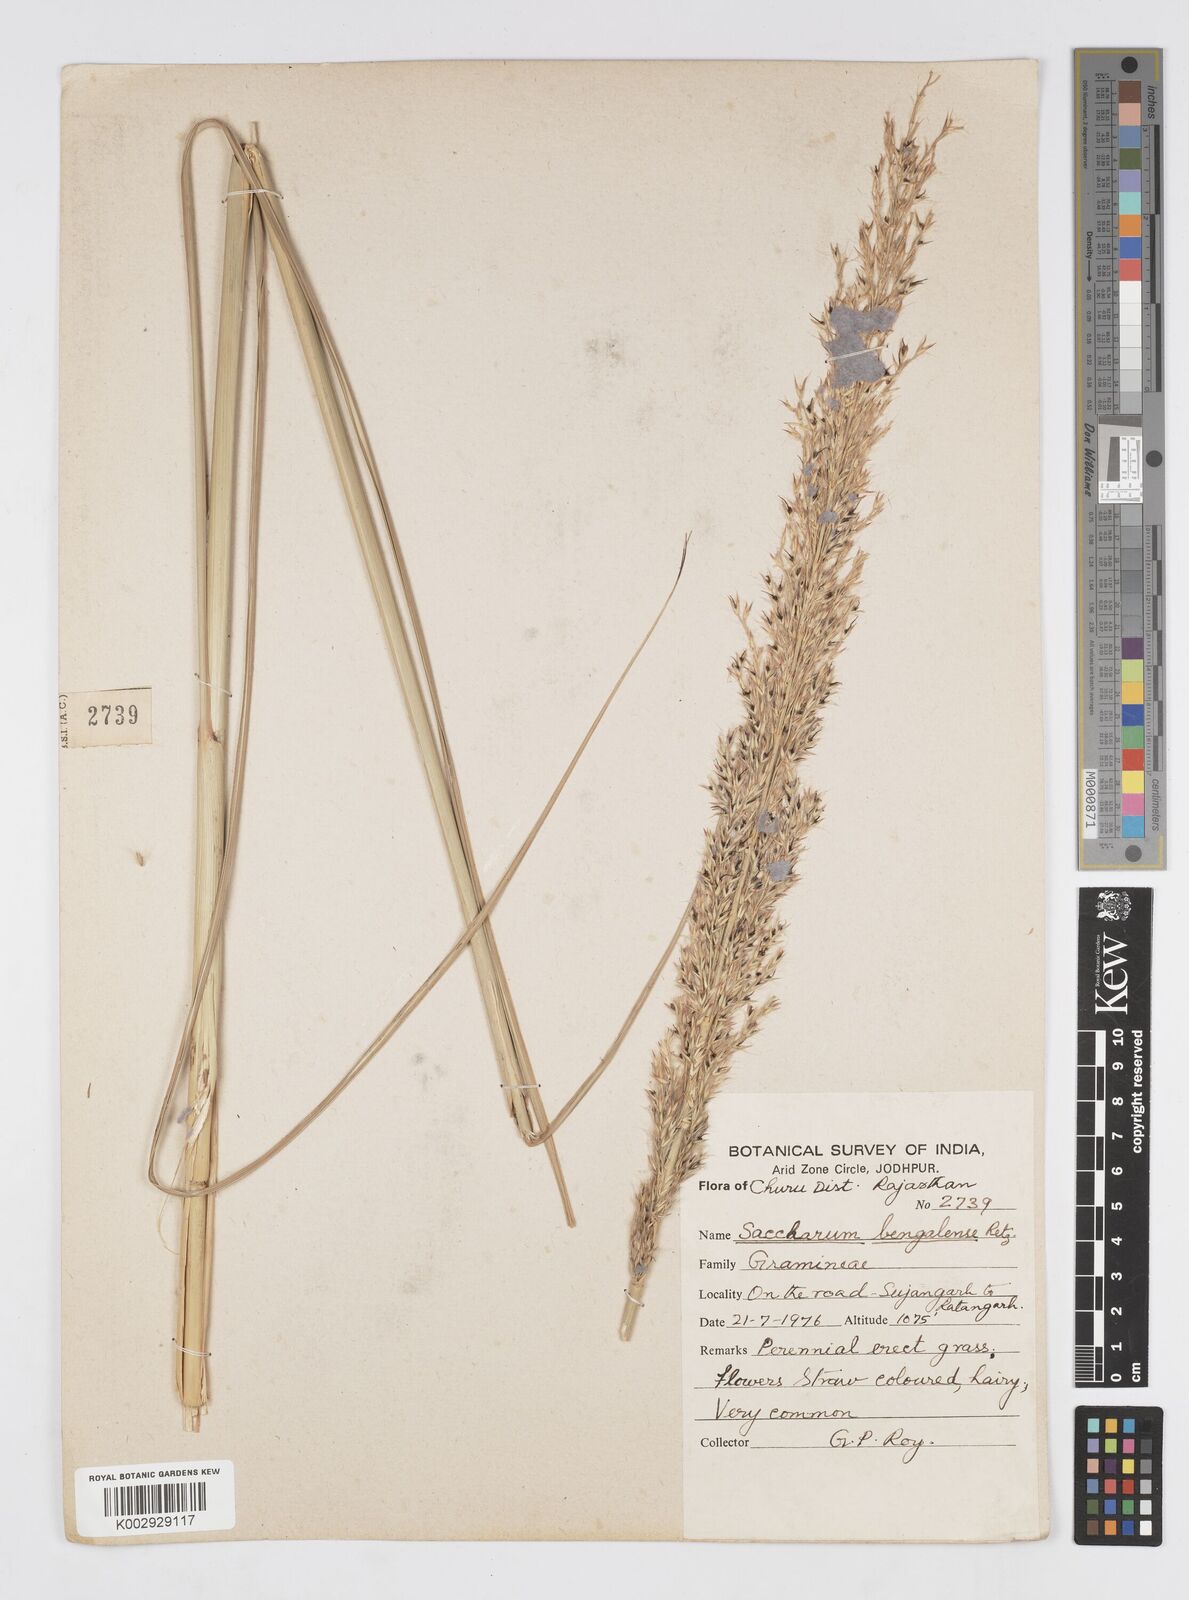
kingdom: Plantae
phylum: Tracheophyta
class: Liliopsida
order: Poales
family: Poaceae
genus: Tripidium
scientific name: Tripidium bengalense
